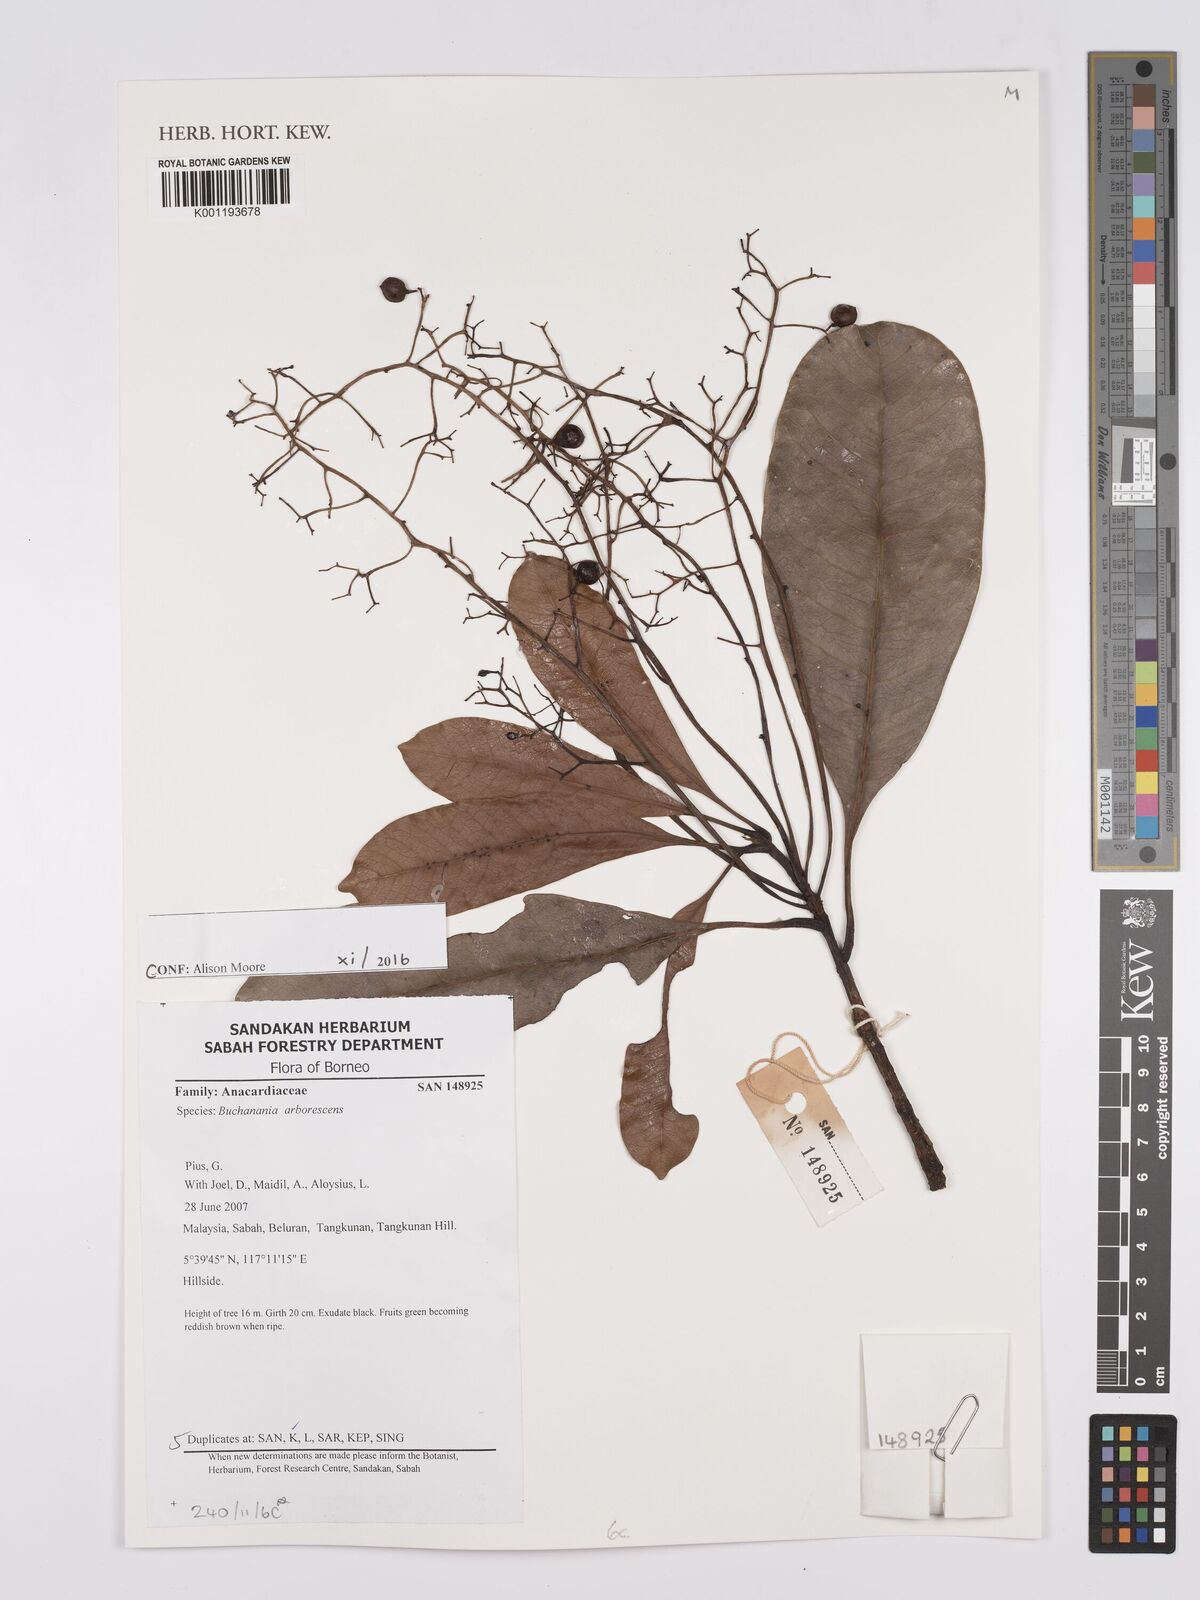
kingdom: Plantae
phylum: Tracheophyta
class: Magnoliopsida
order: Sapindales
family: Anacardiaceae
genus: Buchanania
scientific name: Buchanania arborescens
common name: Sparrow’s mango
